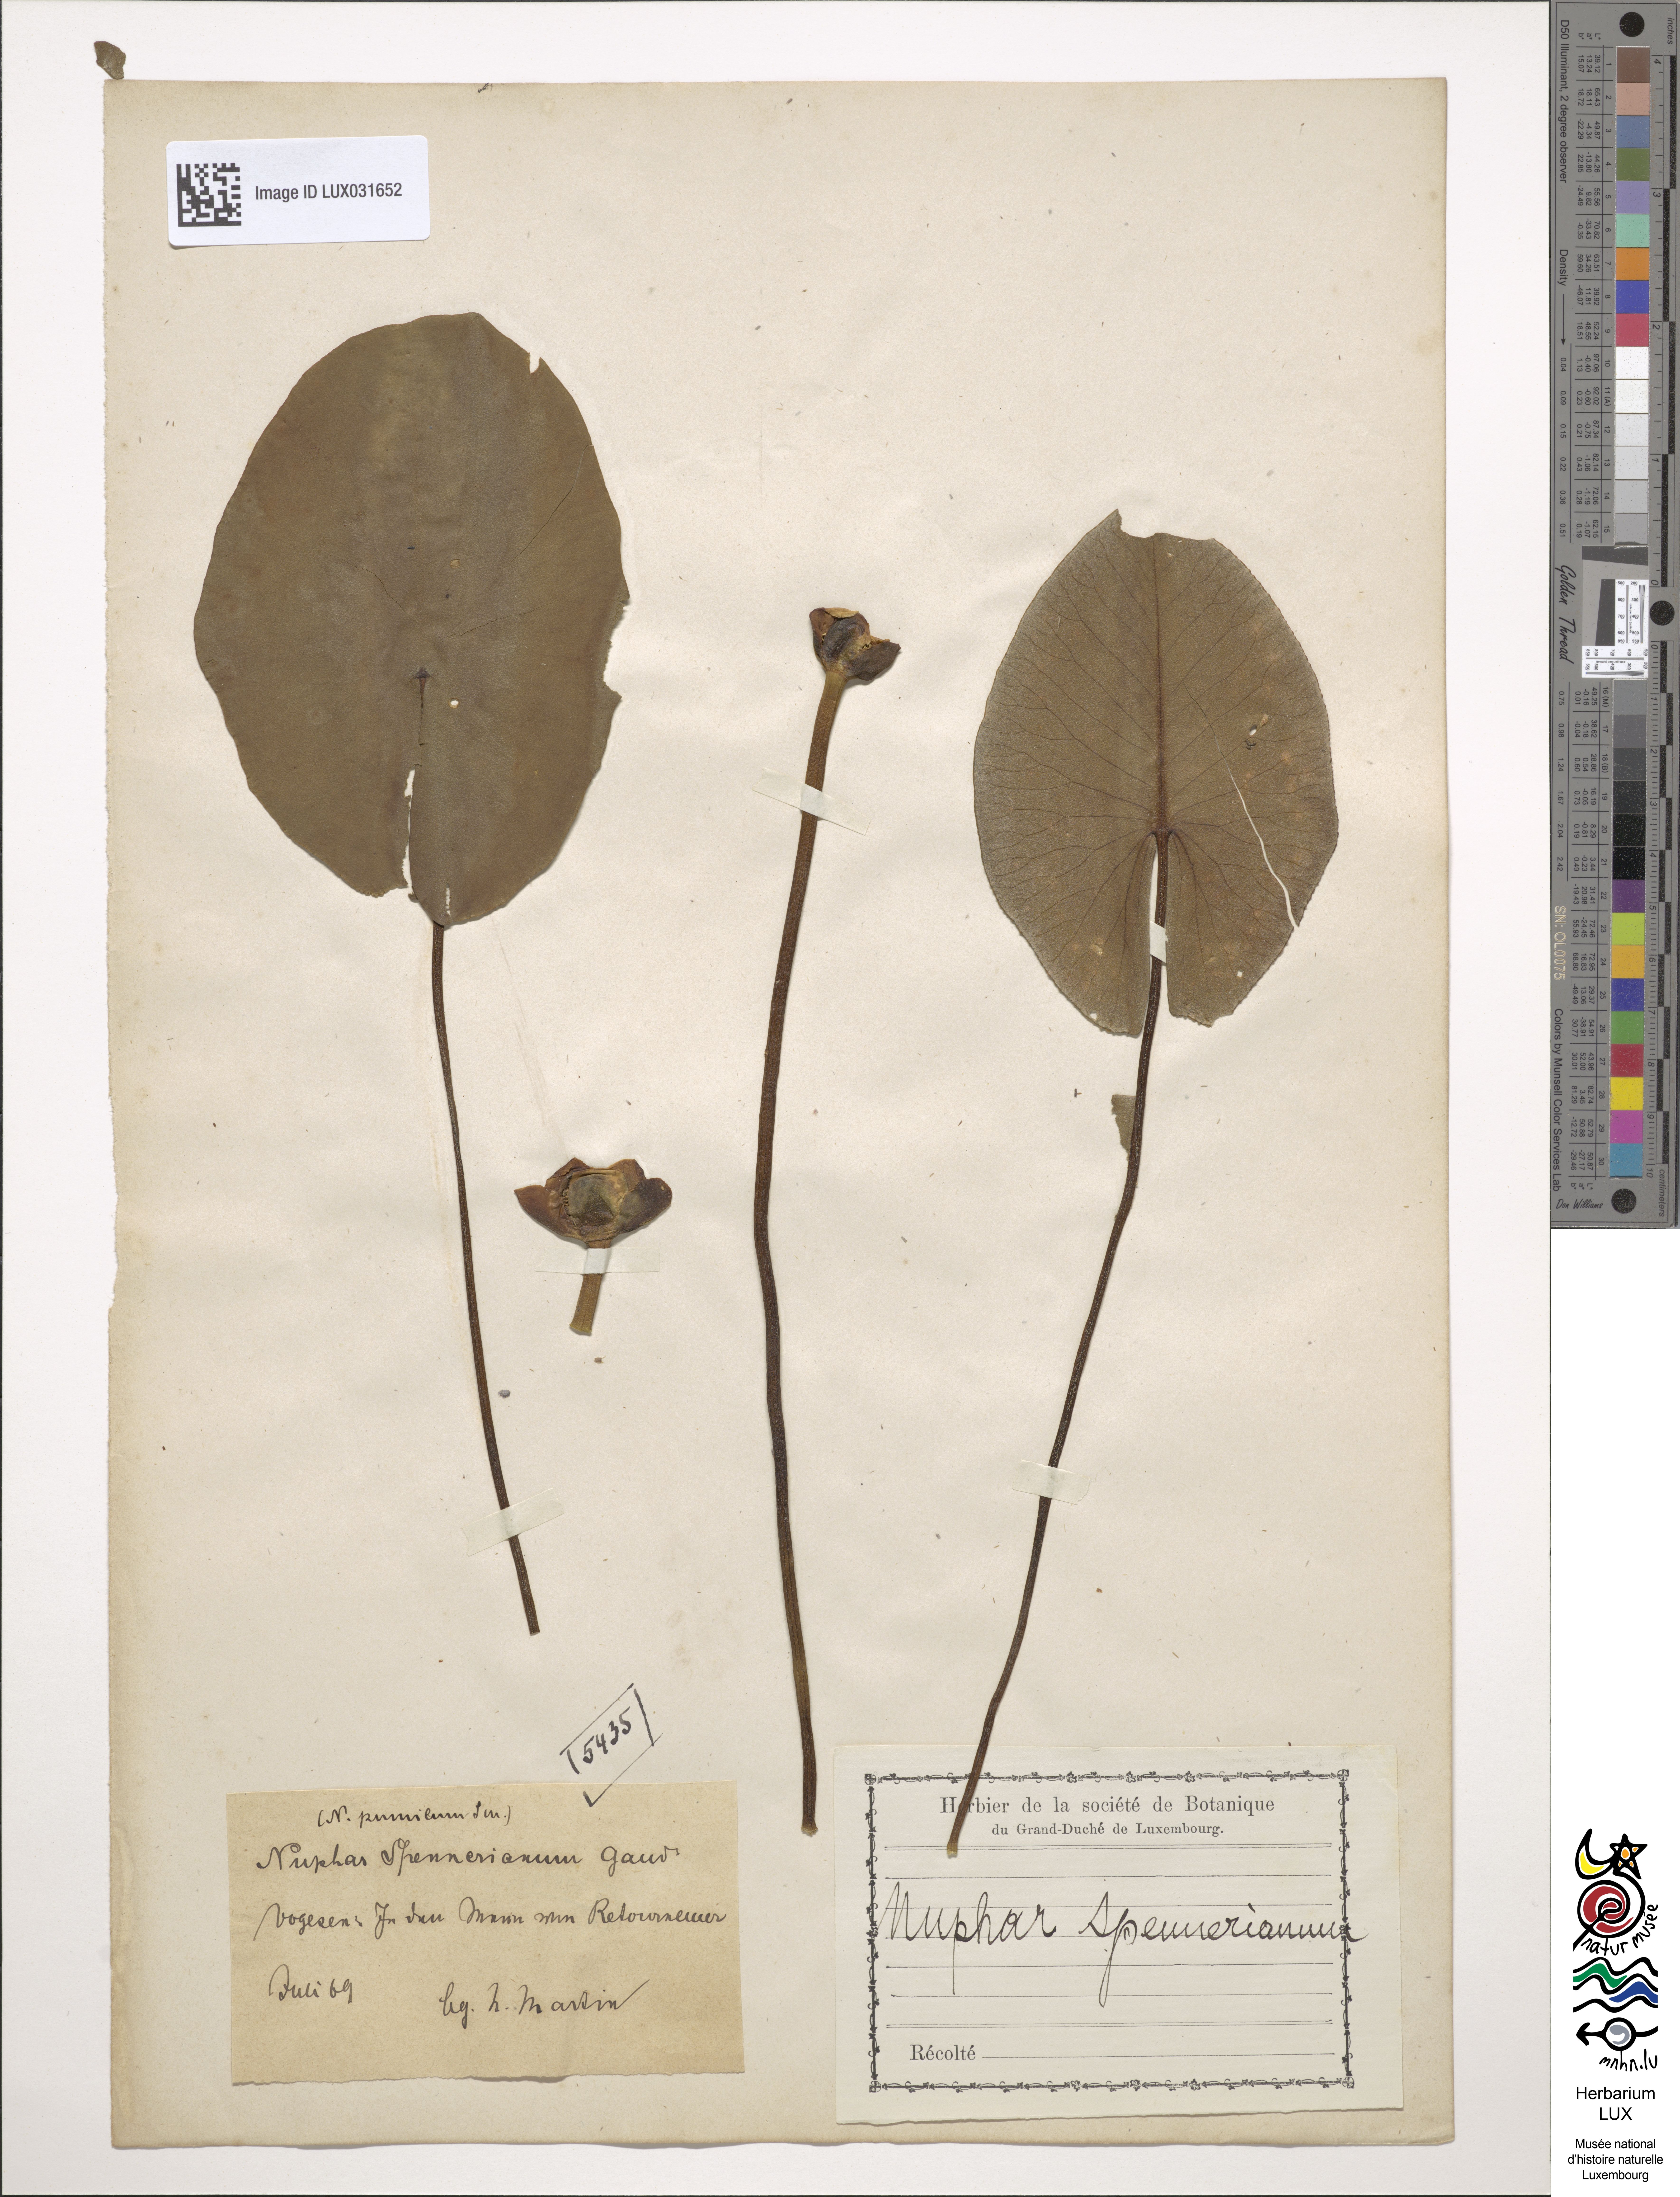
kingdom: Plantae
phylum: Tracheophyta
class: Magnoliopsida
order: Nymphaeales
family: Nymphaeaceae
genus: Nuphar
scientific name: Nuphar pumila
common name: Least water-lily
